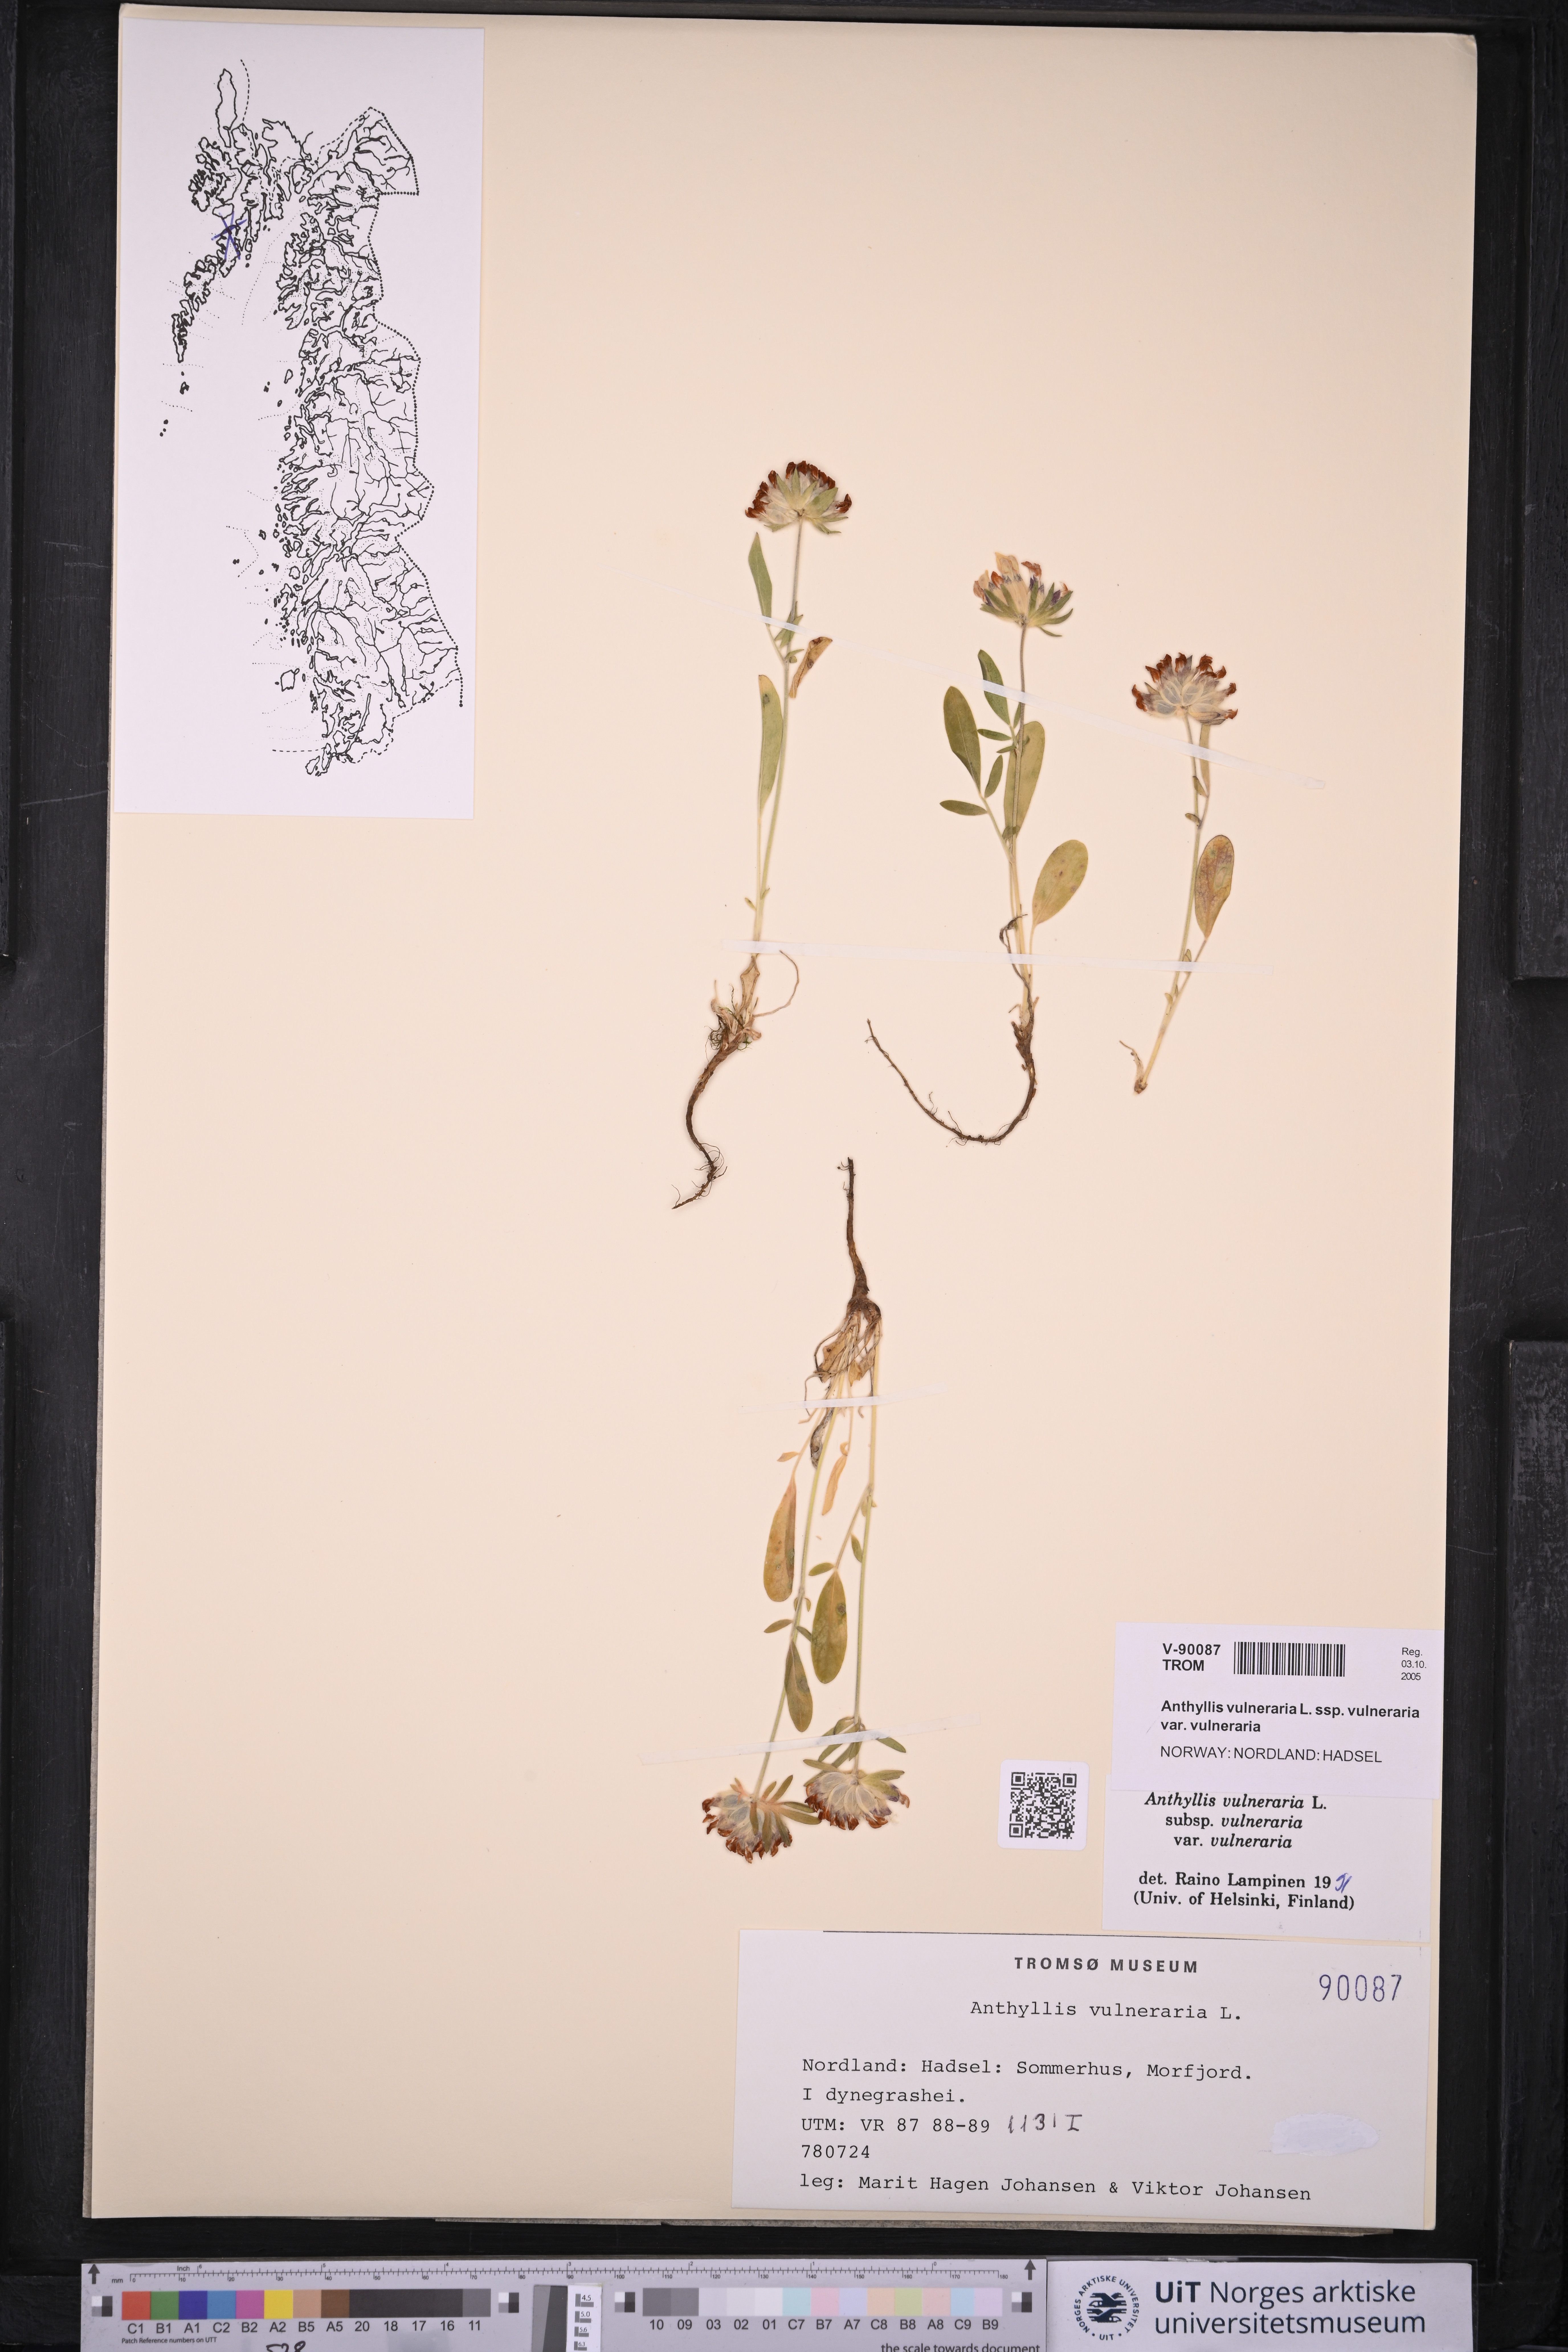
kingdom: Plantae
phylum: Tracheophyta
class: Magnoliopsida
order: Fabales
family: Fabaceae
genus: Anthyllis
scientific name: Anthyllis vulneraria
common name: Kidney vetch
